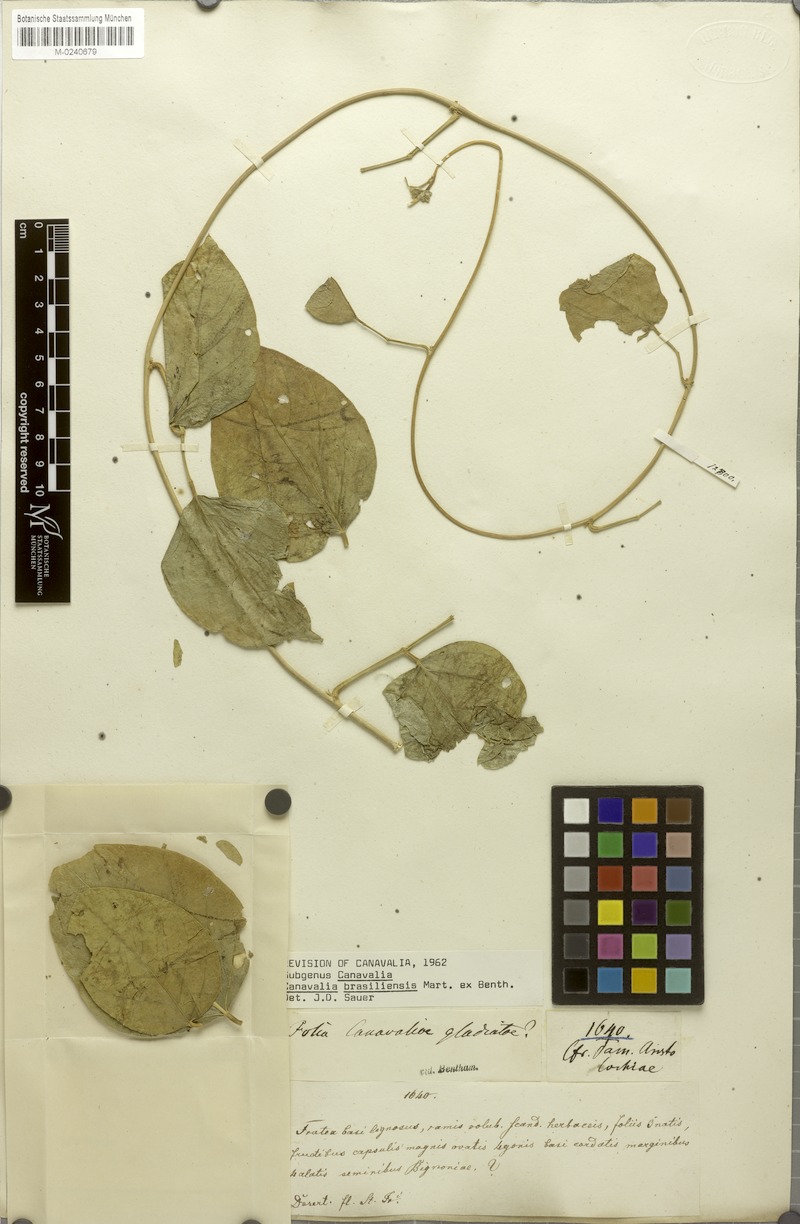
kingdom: Plantae
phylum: Tracheophyta
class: Magnoliopsida
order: Fabales
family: Fabaceae
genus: Canavalia
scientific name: Canavalia brasiliensis
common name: Barbicou-bean
